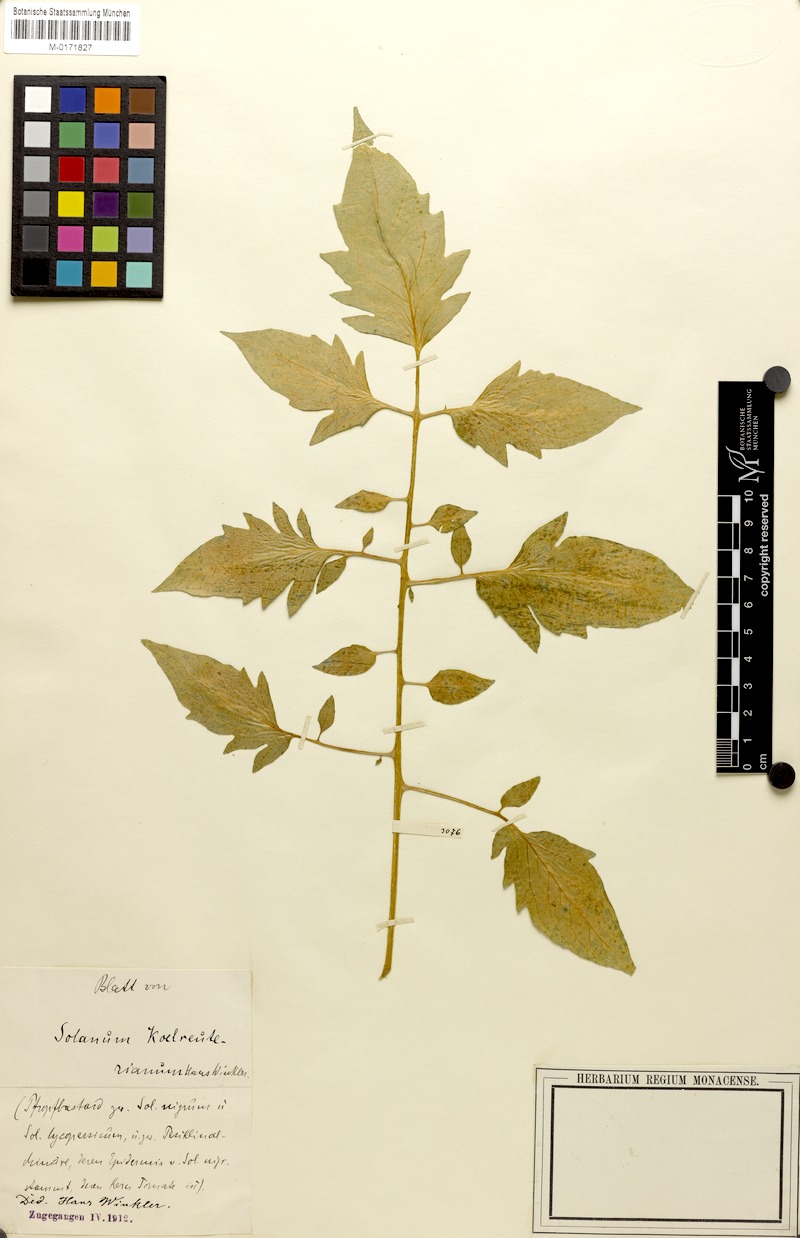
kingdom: Plantae
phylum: Tracheophyta
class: Magnoliopsida
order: Solanales
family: Solanaceae
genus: Solanum
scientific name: Solanum lycopersicum
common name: Garden tomato
